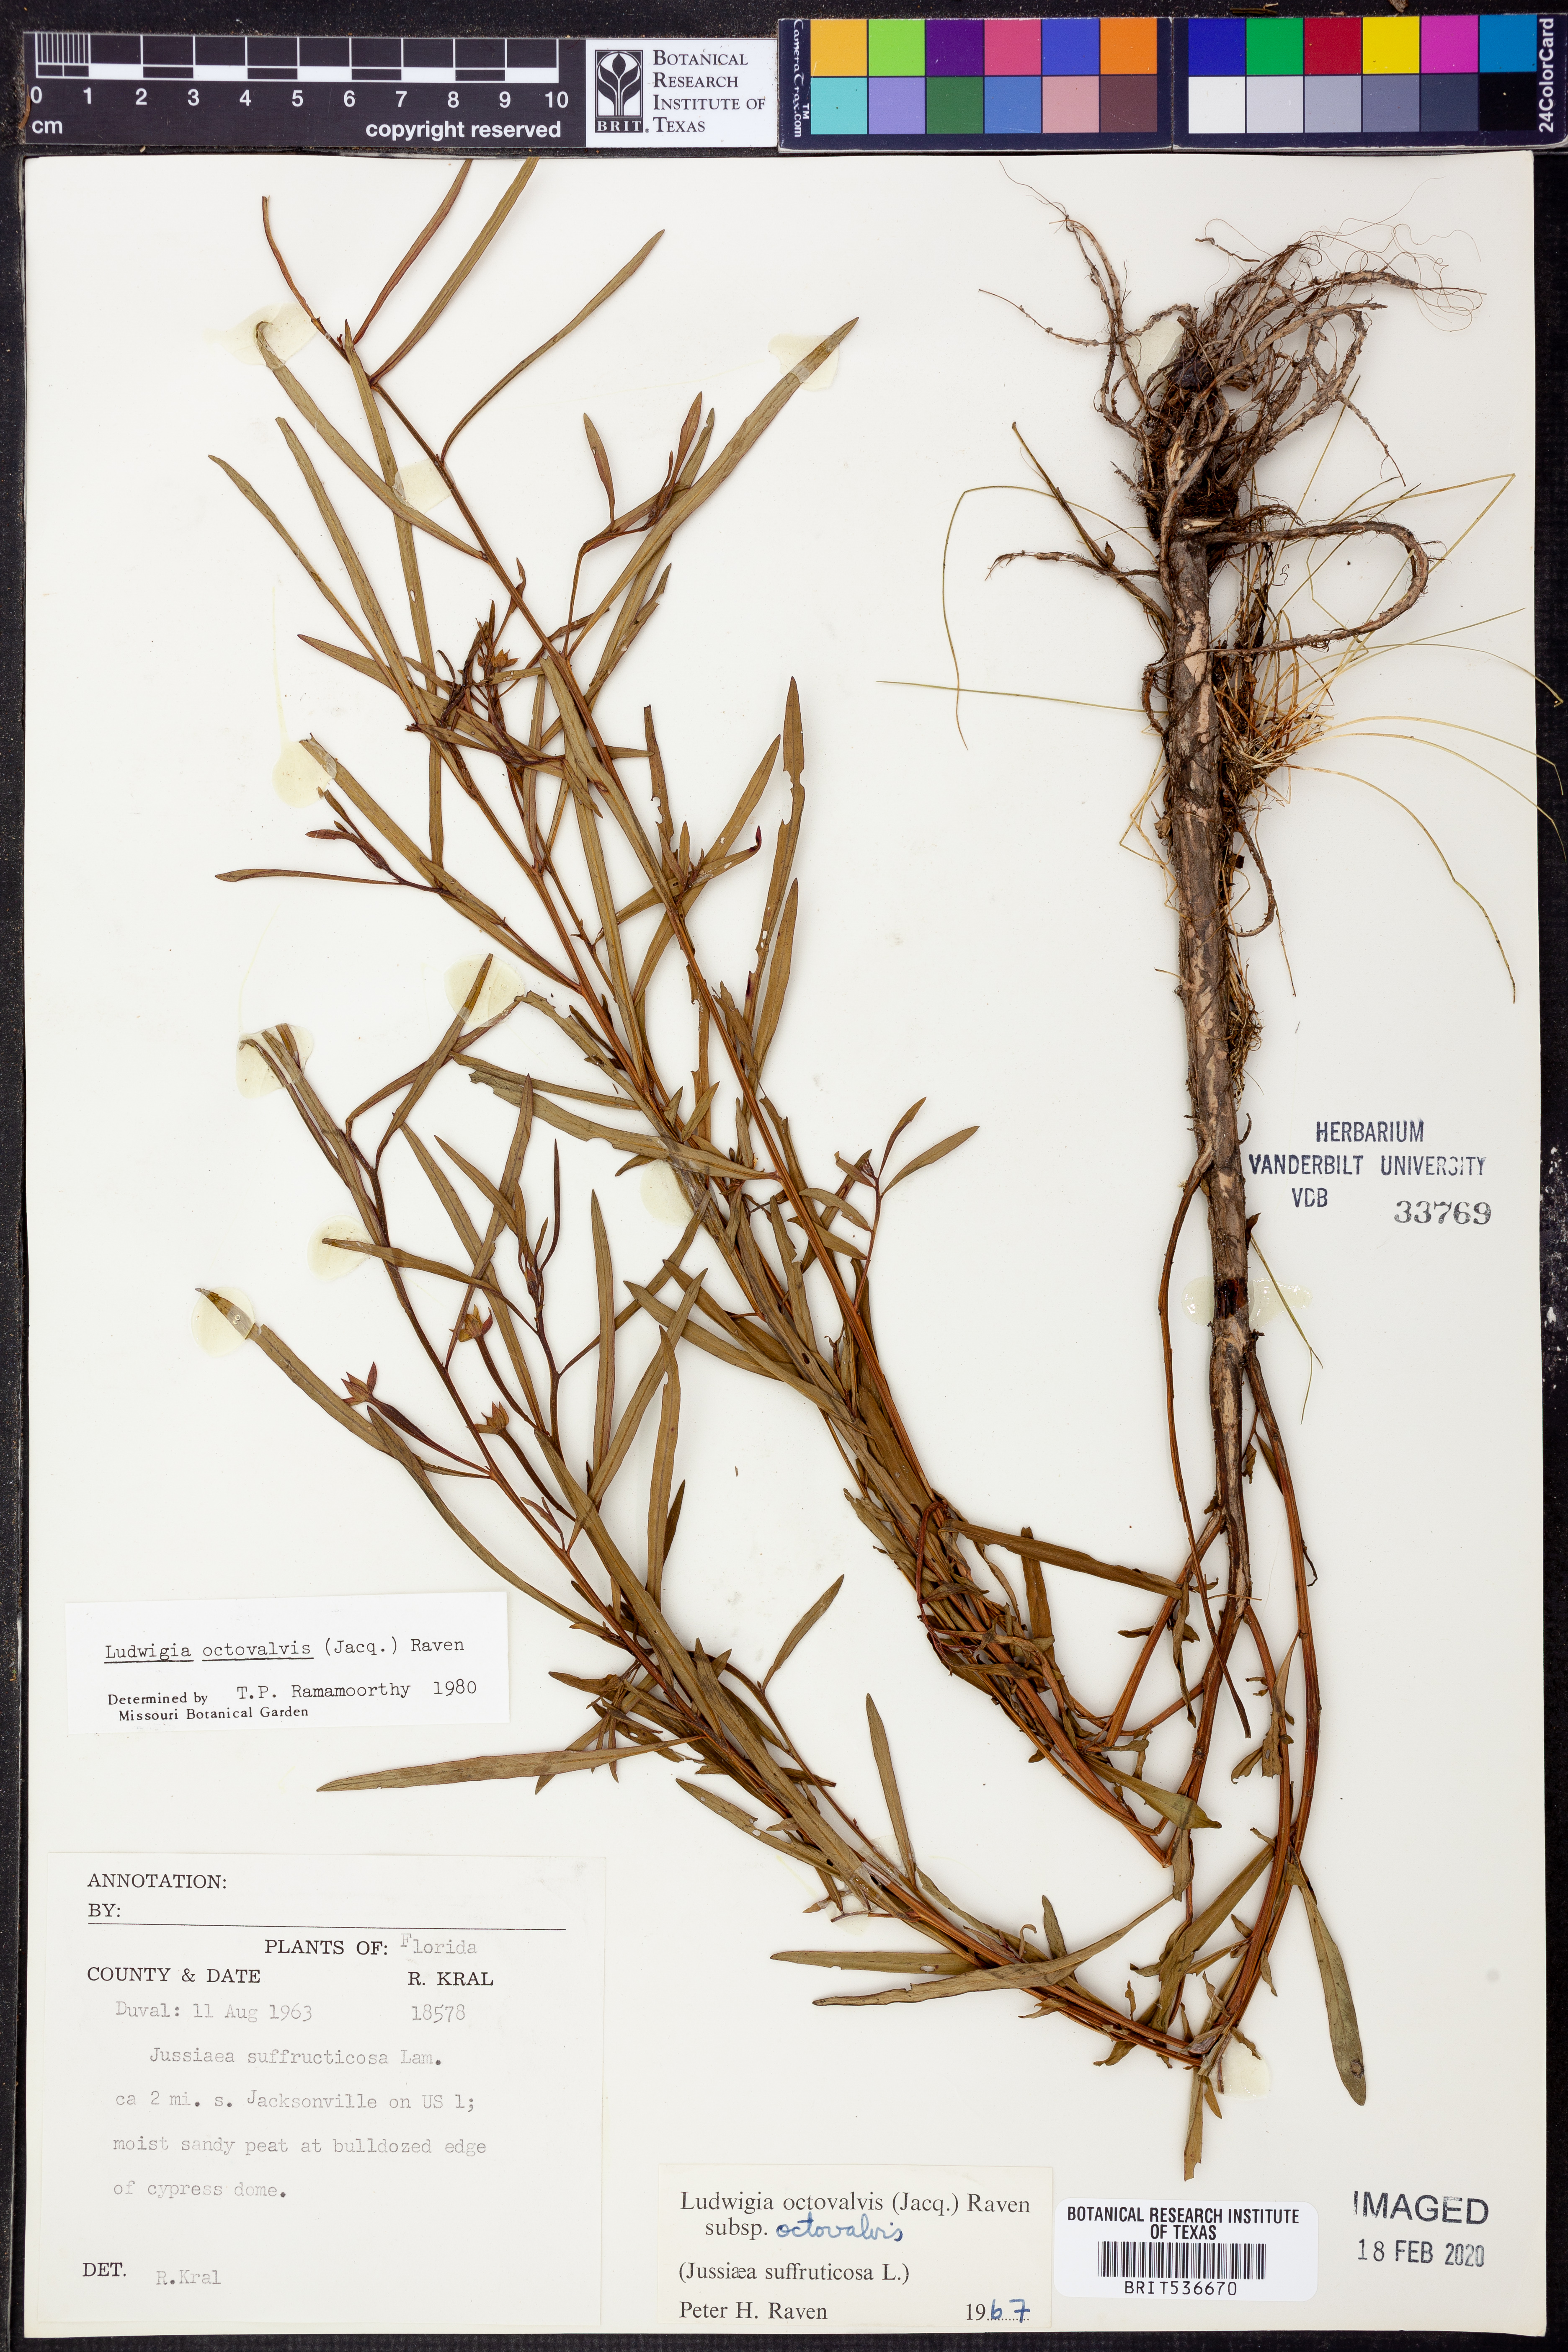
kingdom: Plantae
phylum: Tracheophyta
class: Magnoliopsida
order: Myrtales
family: Onagraceae
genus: Ludwigia
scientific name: Ludwigia octovalvis
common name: Water-primrose
